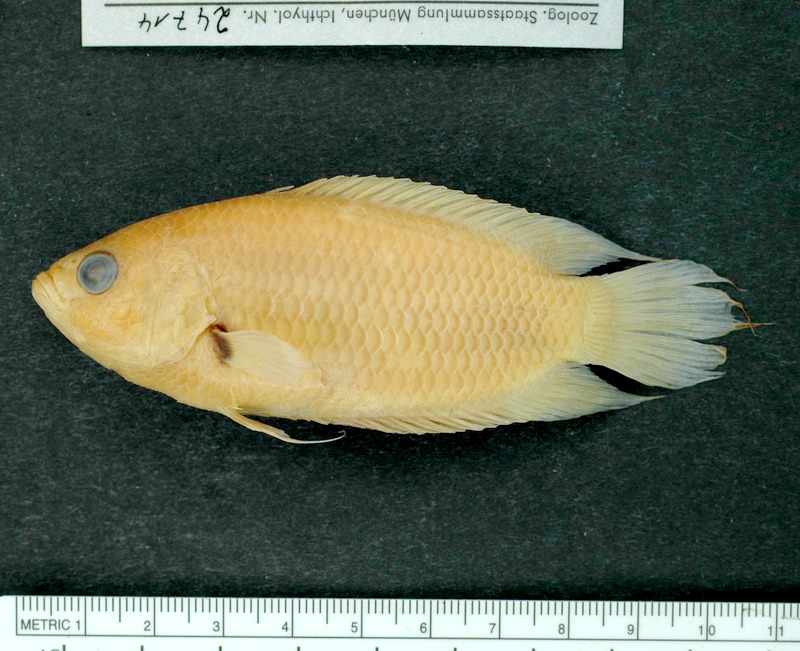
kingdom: Animalia
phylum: Chordata
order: Perciformes
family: Osphronemidae
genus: Belontia
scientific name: Belontia signata
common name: Combtail
